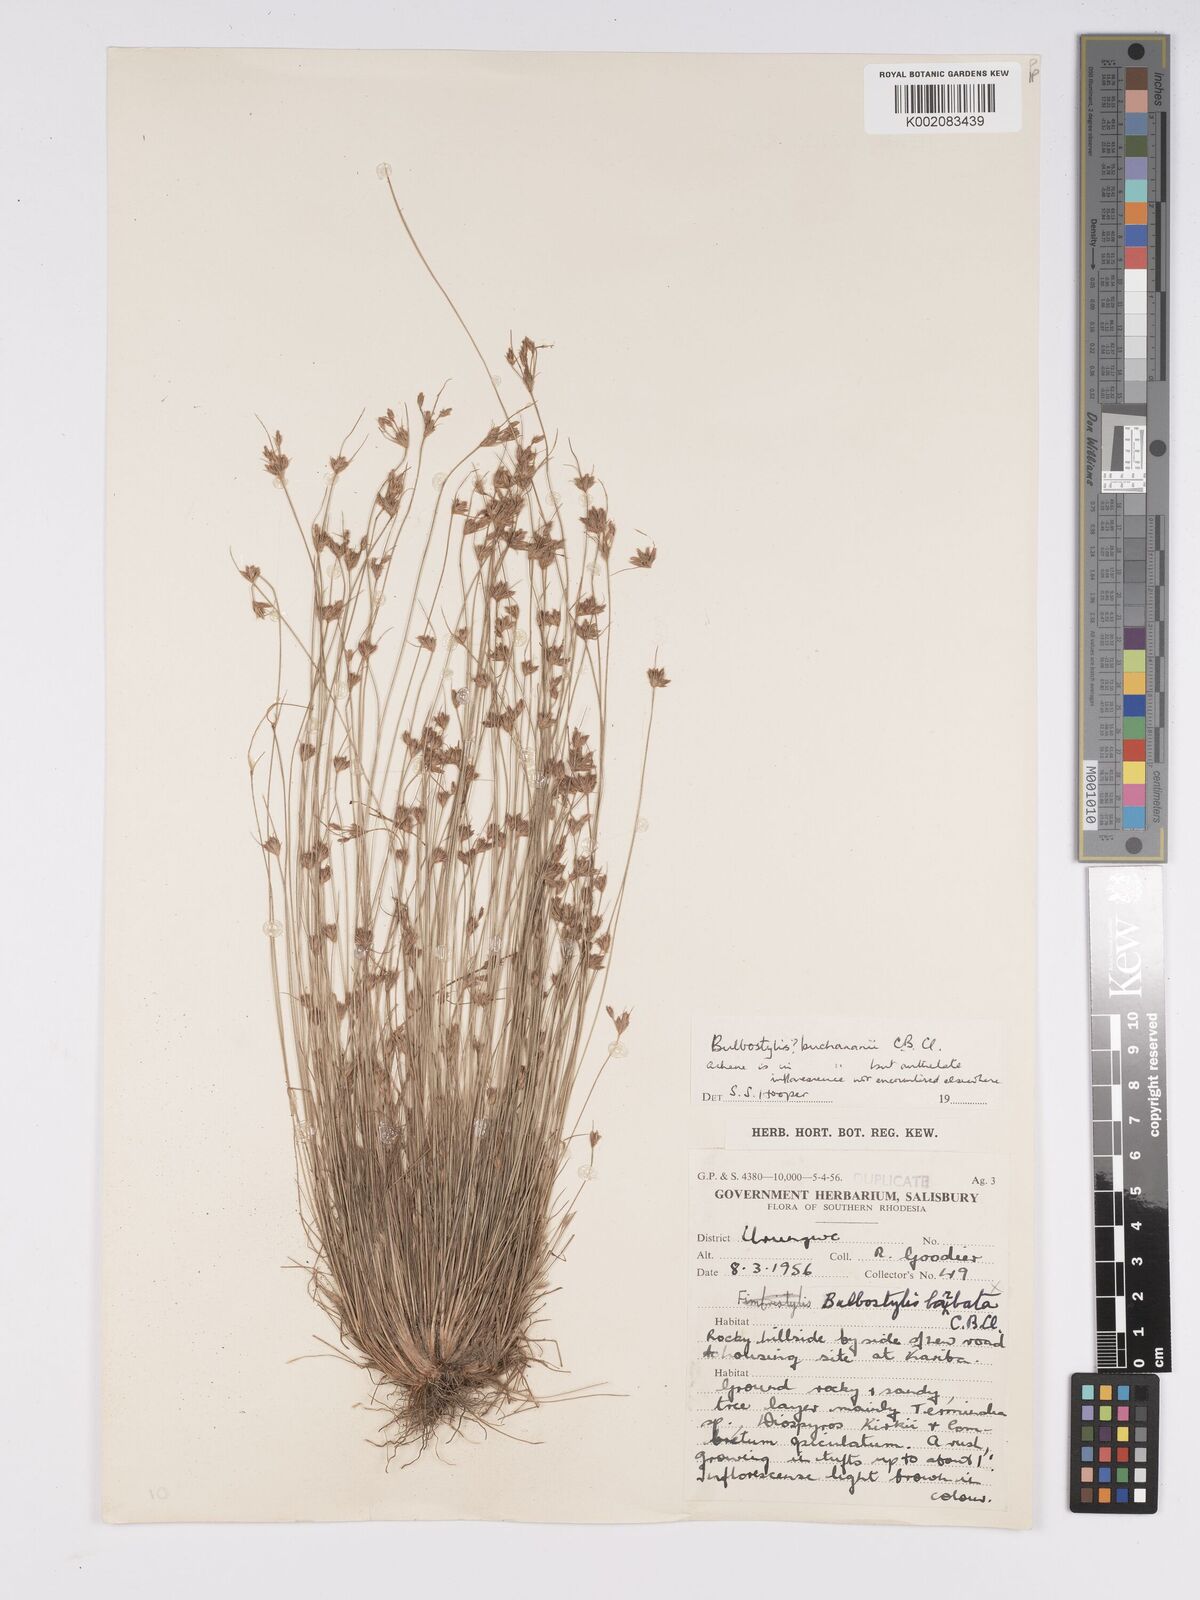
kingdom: Plantae
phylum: Tracheophyta
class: Liliopsida
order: Poales
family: Cyperaceae
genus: Bulbostylis
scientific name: Bulbostylis buchananii
